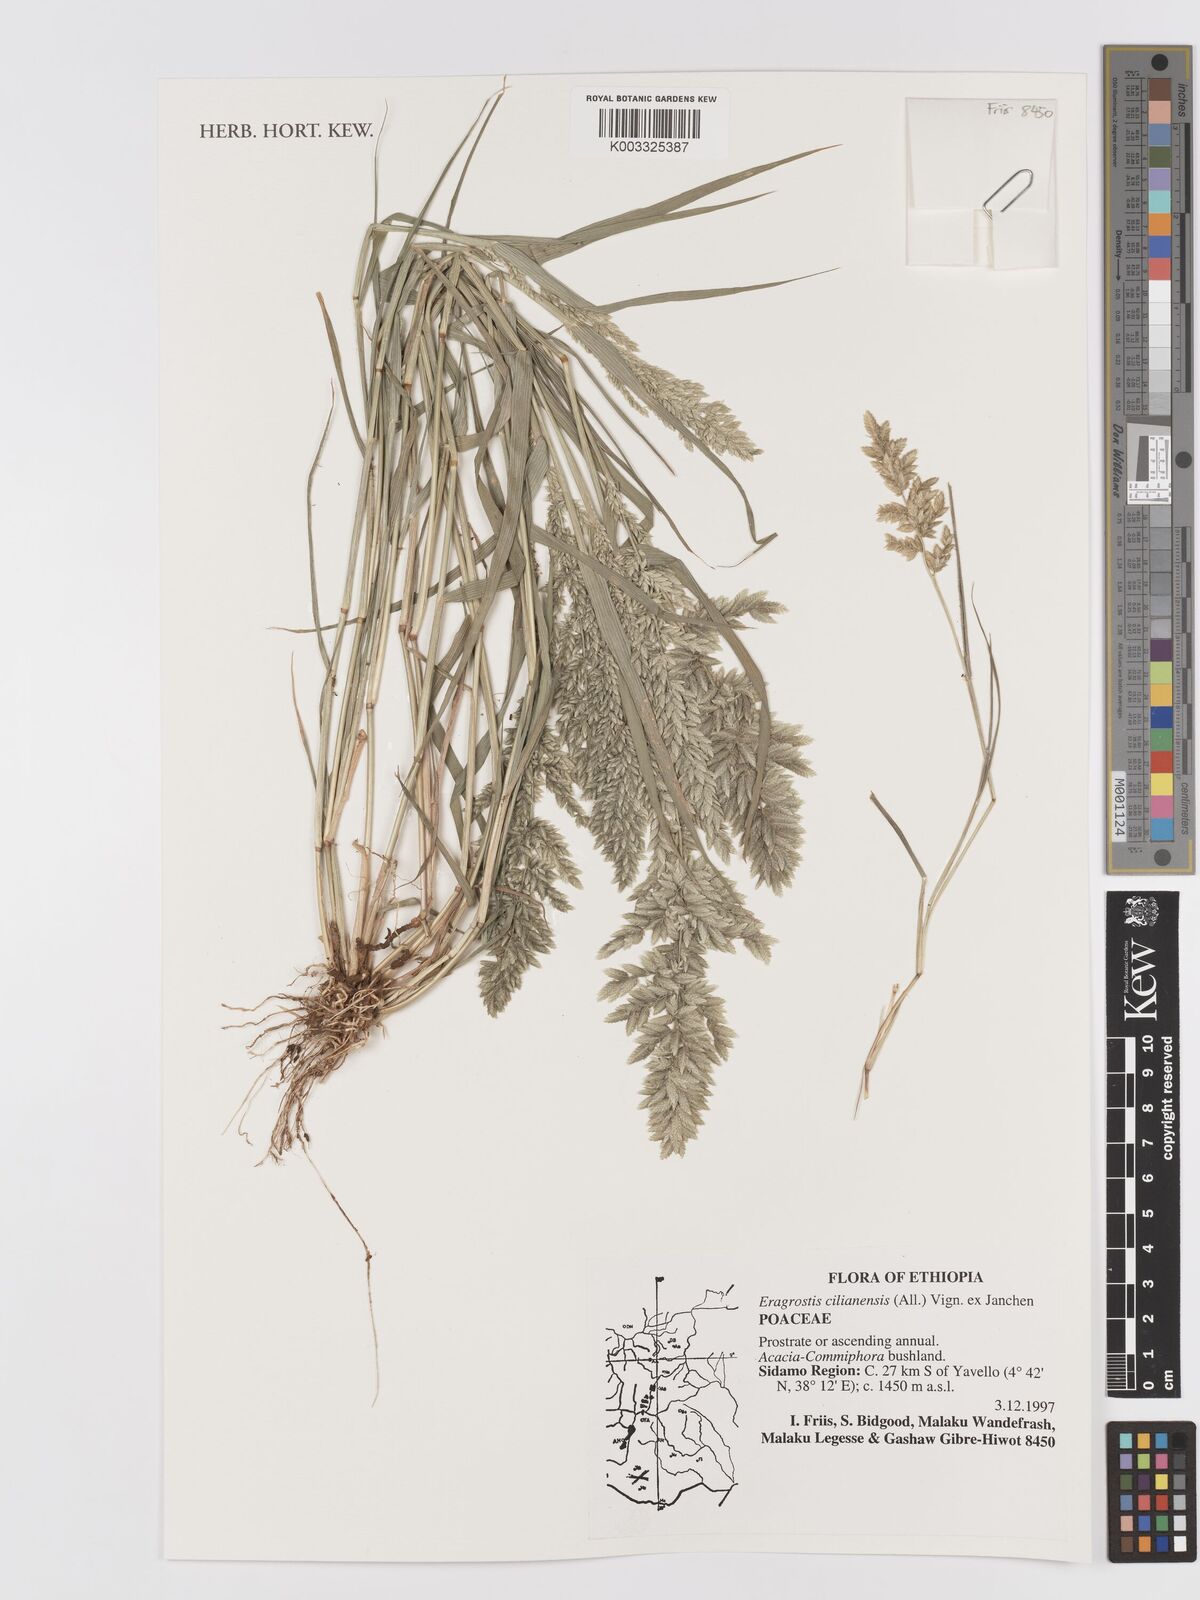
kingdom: Plantae
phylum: Tracheophyta
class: Liliopsida
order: Poales
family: Poaceae
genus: Eragrostis
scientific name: Eragrostis cilianensis
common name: Stinkgrass
